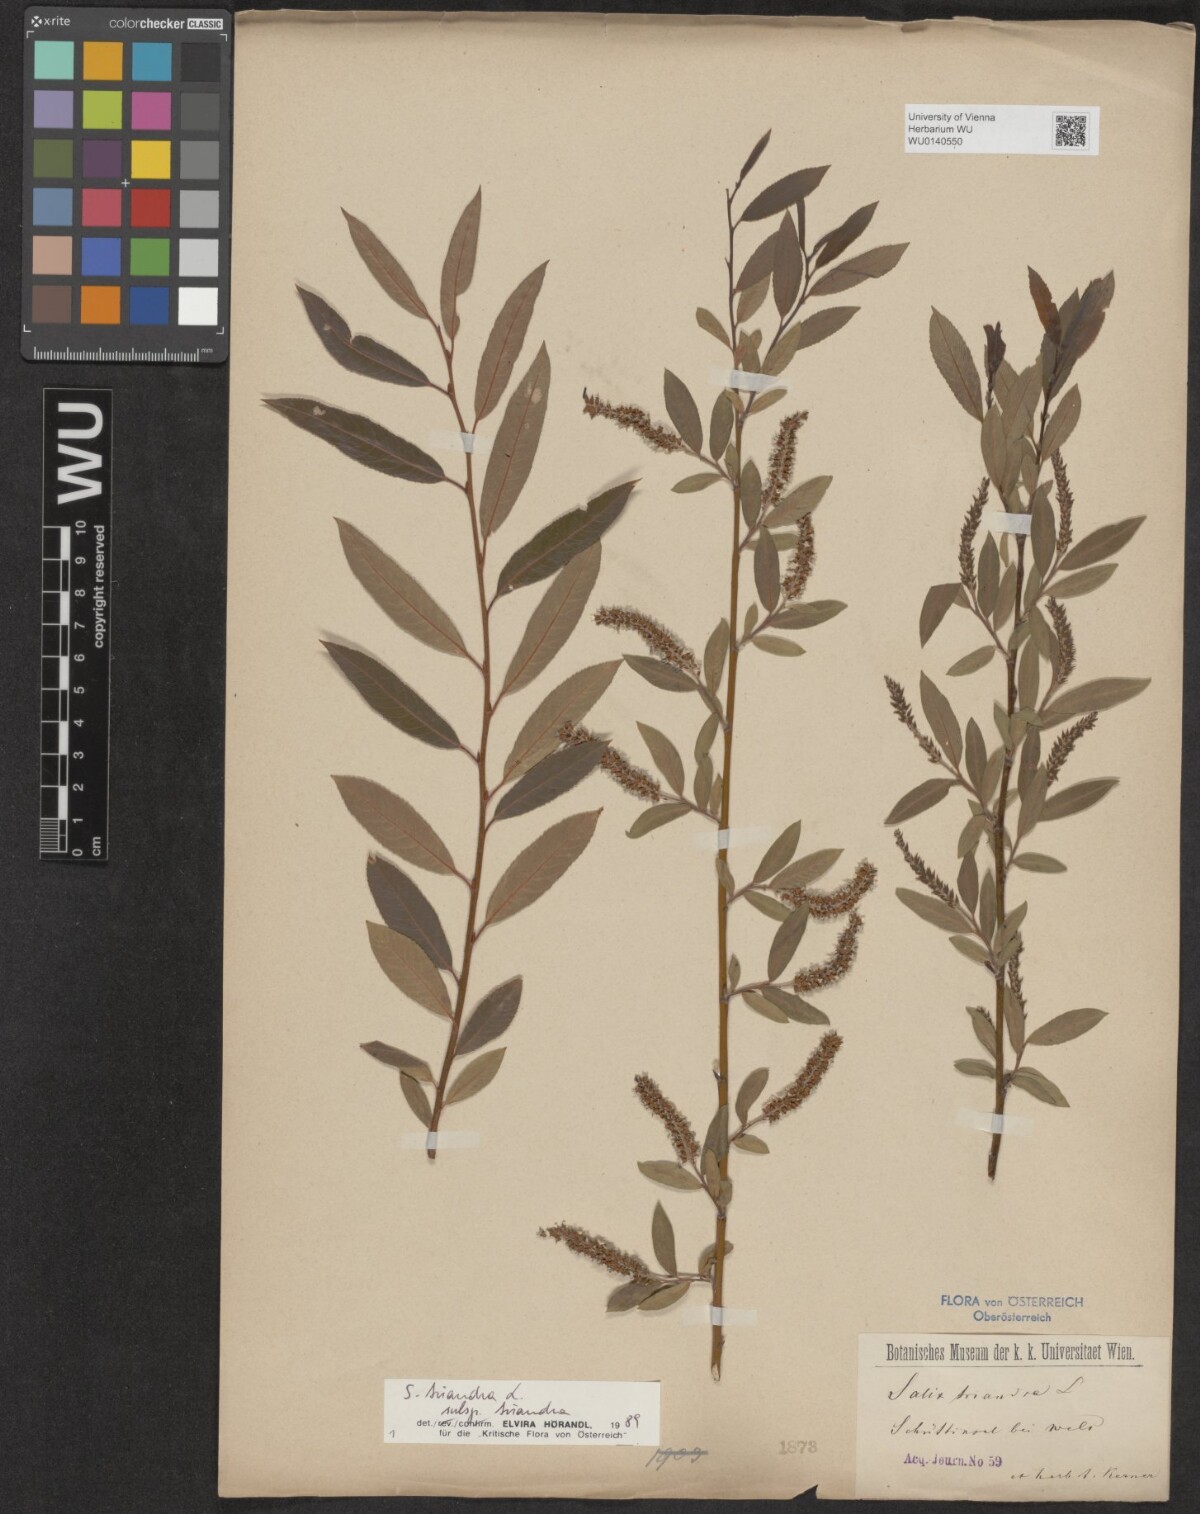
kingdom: Plantae
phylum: Tracheophyta
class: Magnoliopsida
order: Malpighiales
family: Salicaceae
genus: Salix
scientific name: Salix triandra
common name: Almond willow
